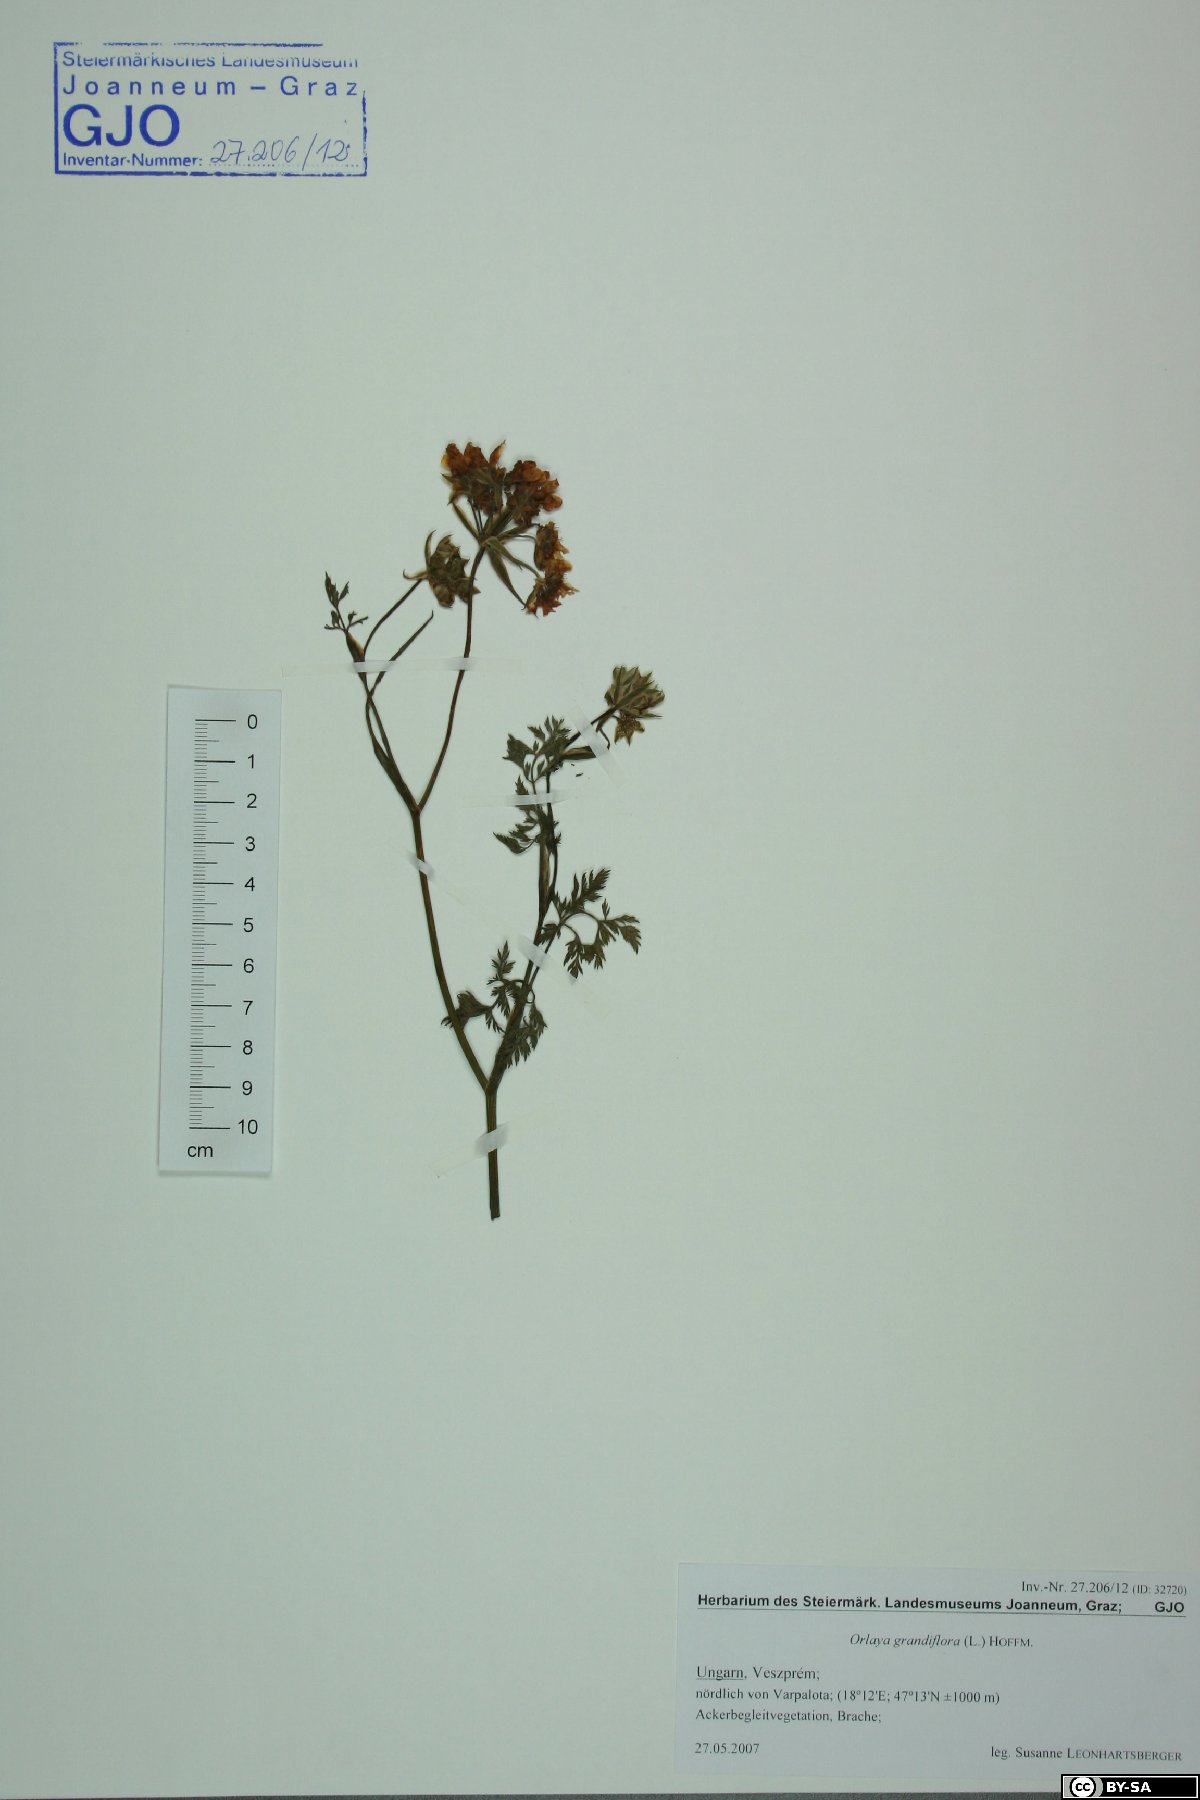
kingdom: Plantae
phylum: Tracheophyta
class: Magnoliopsida
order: Apiales
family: Apiaceae
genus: Orlaya
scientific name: Orlaya grandiflora
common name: White lace flower
